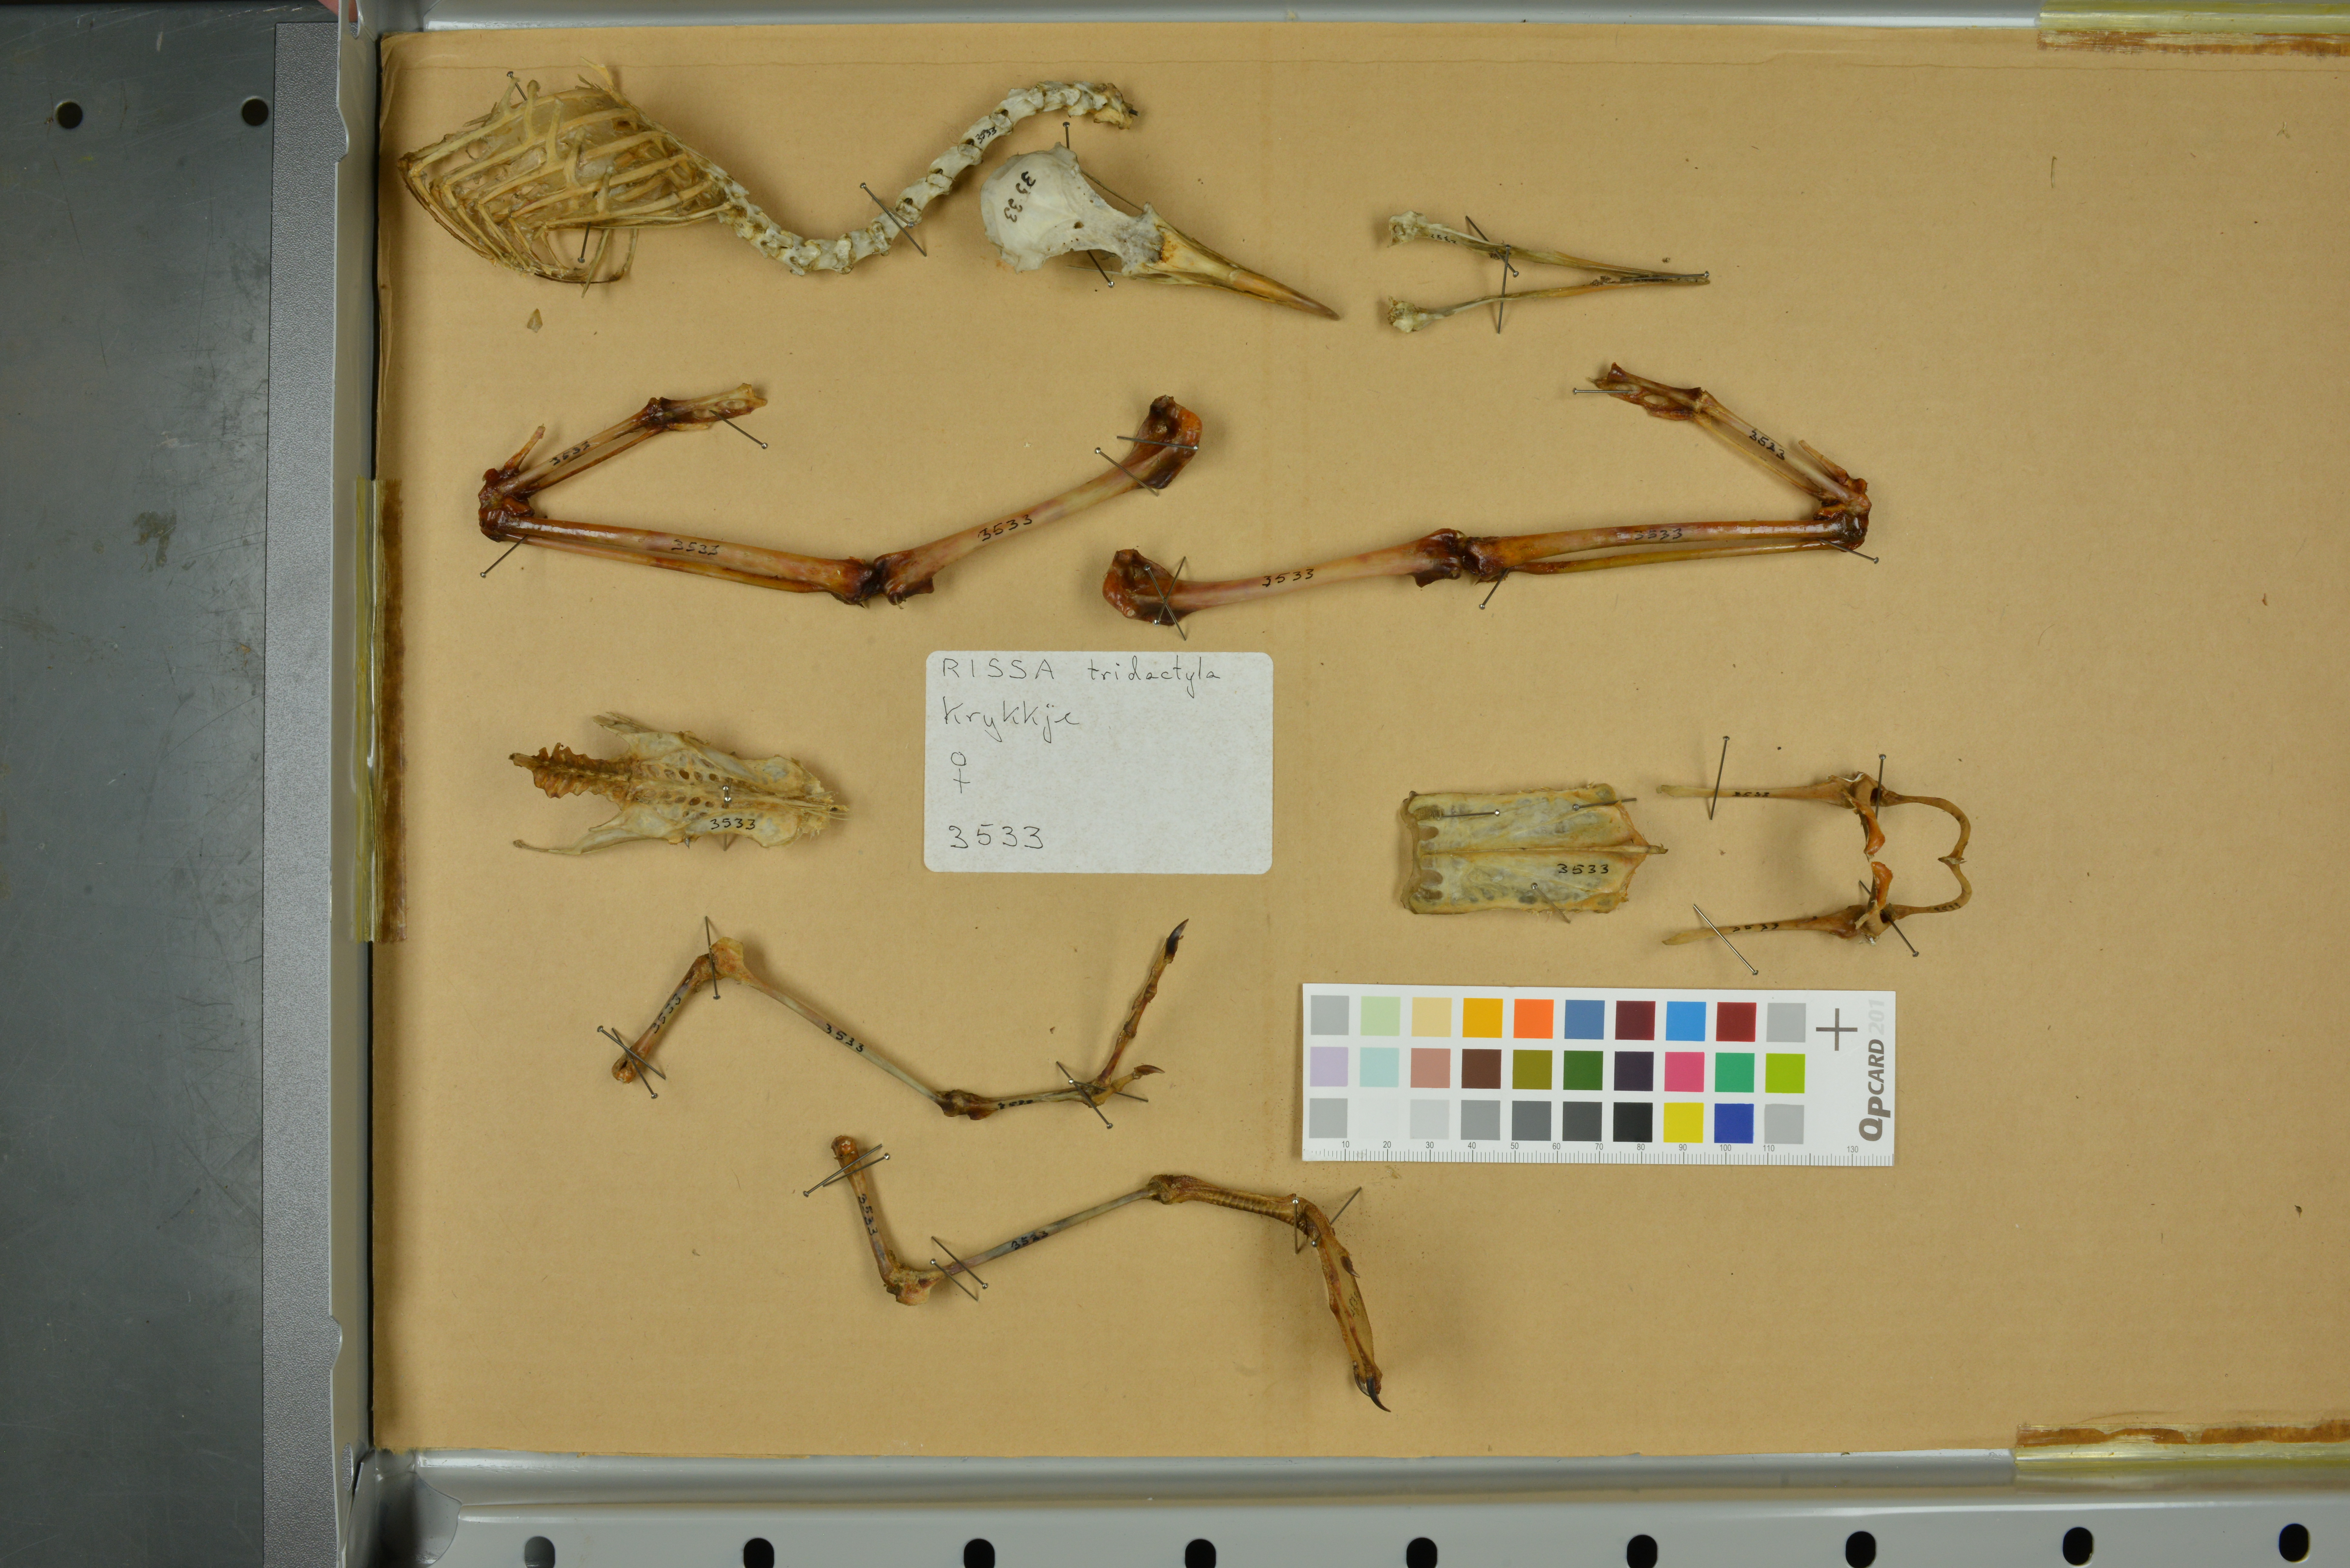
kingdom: Animalia
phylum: Chordata
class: Aves
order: Charadriiformes
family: Laridae
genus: Rissa
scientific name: Rissa tridactyla
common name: Black-legged kittiwake
